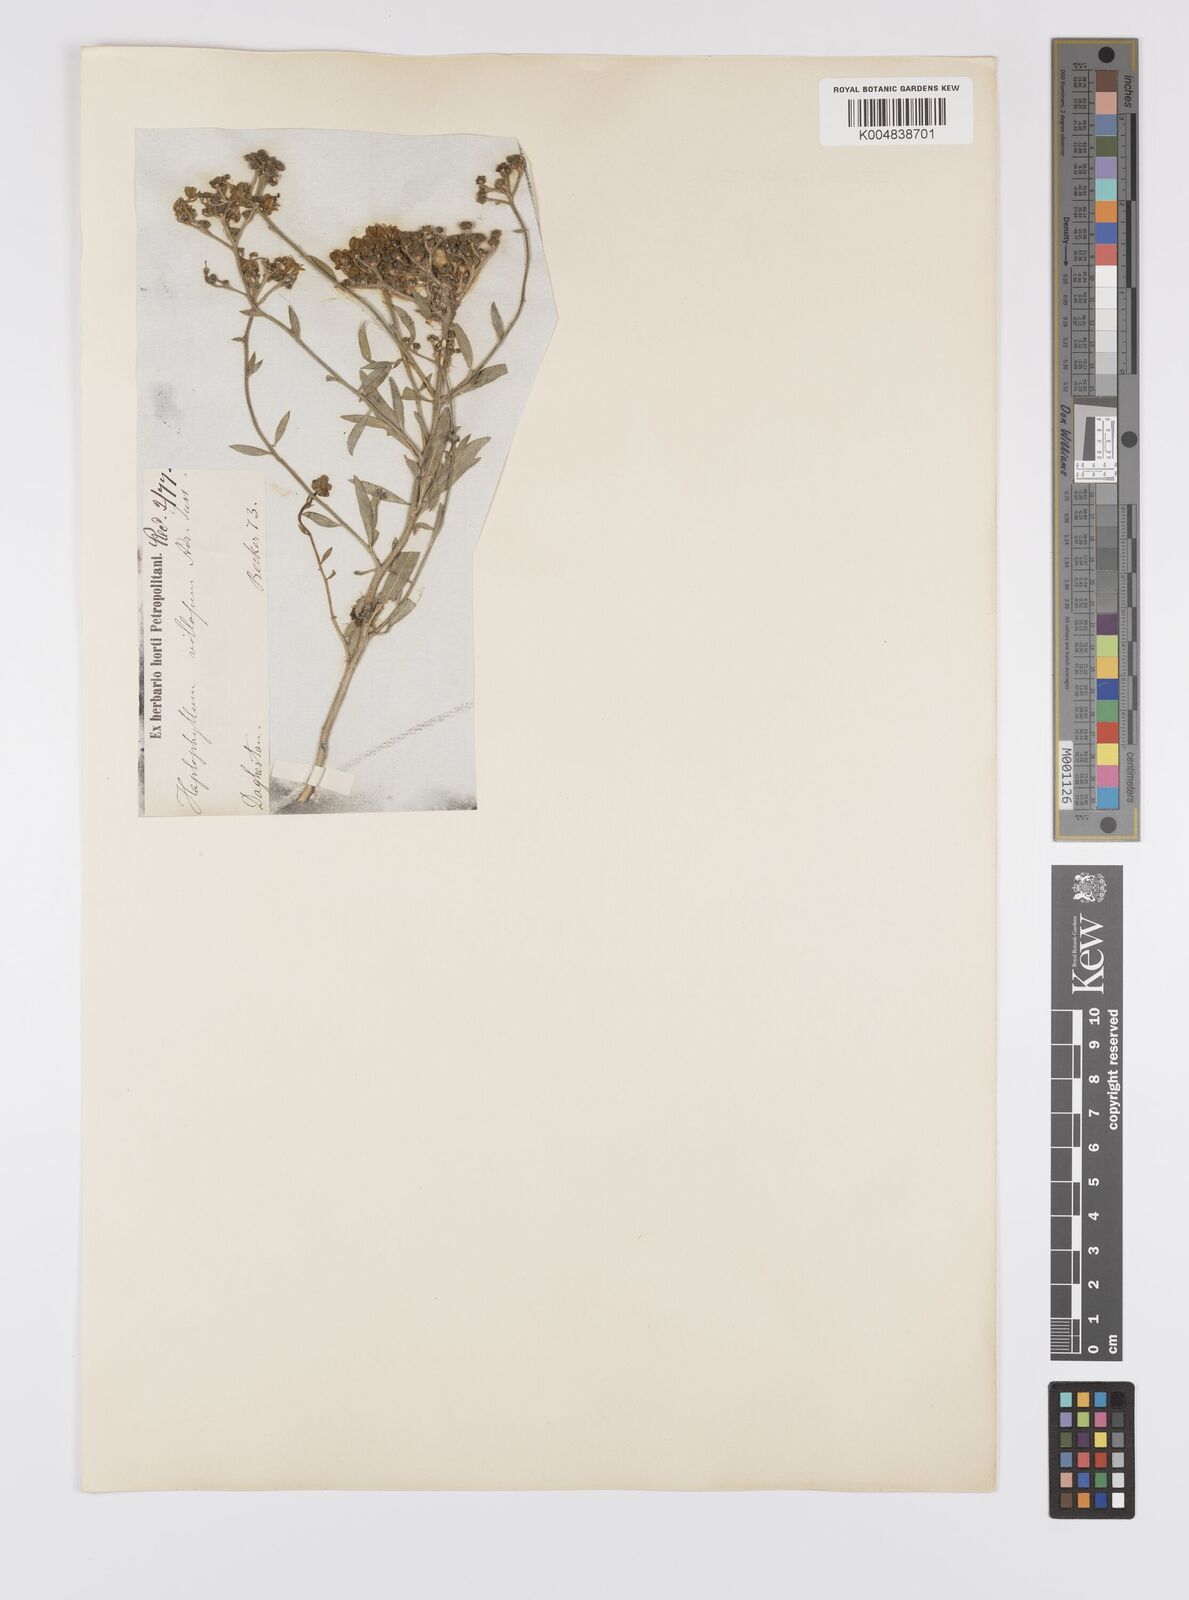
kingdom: Plantae
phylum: Tracheophyta
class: Magnoliopsida
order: Sapindales
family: Rutaceae
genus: Haplophyllum
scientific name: Haplophyllum villosum
